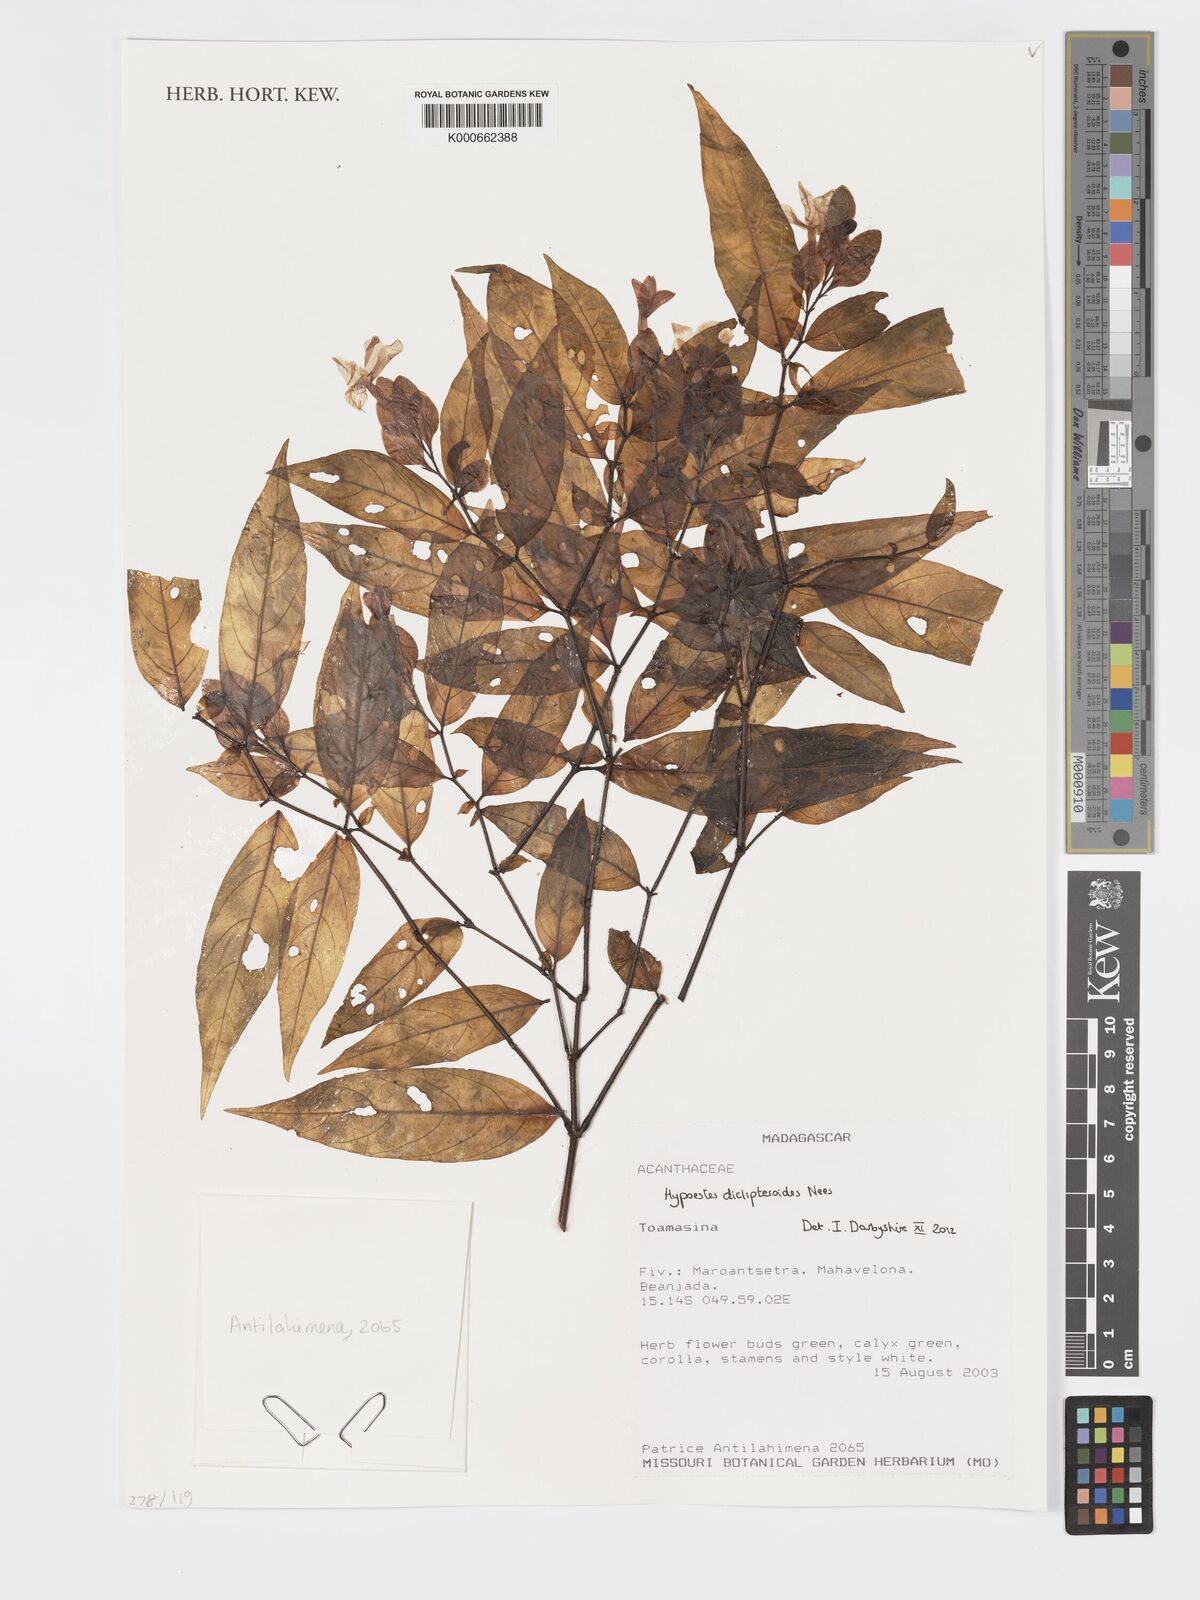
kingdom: Plantae
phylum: Tracheophyta
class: Magnoliopsida
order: Lamiales
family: Acanthaceae
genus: Hypoestes
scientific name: Hypoestes diclipteroides
